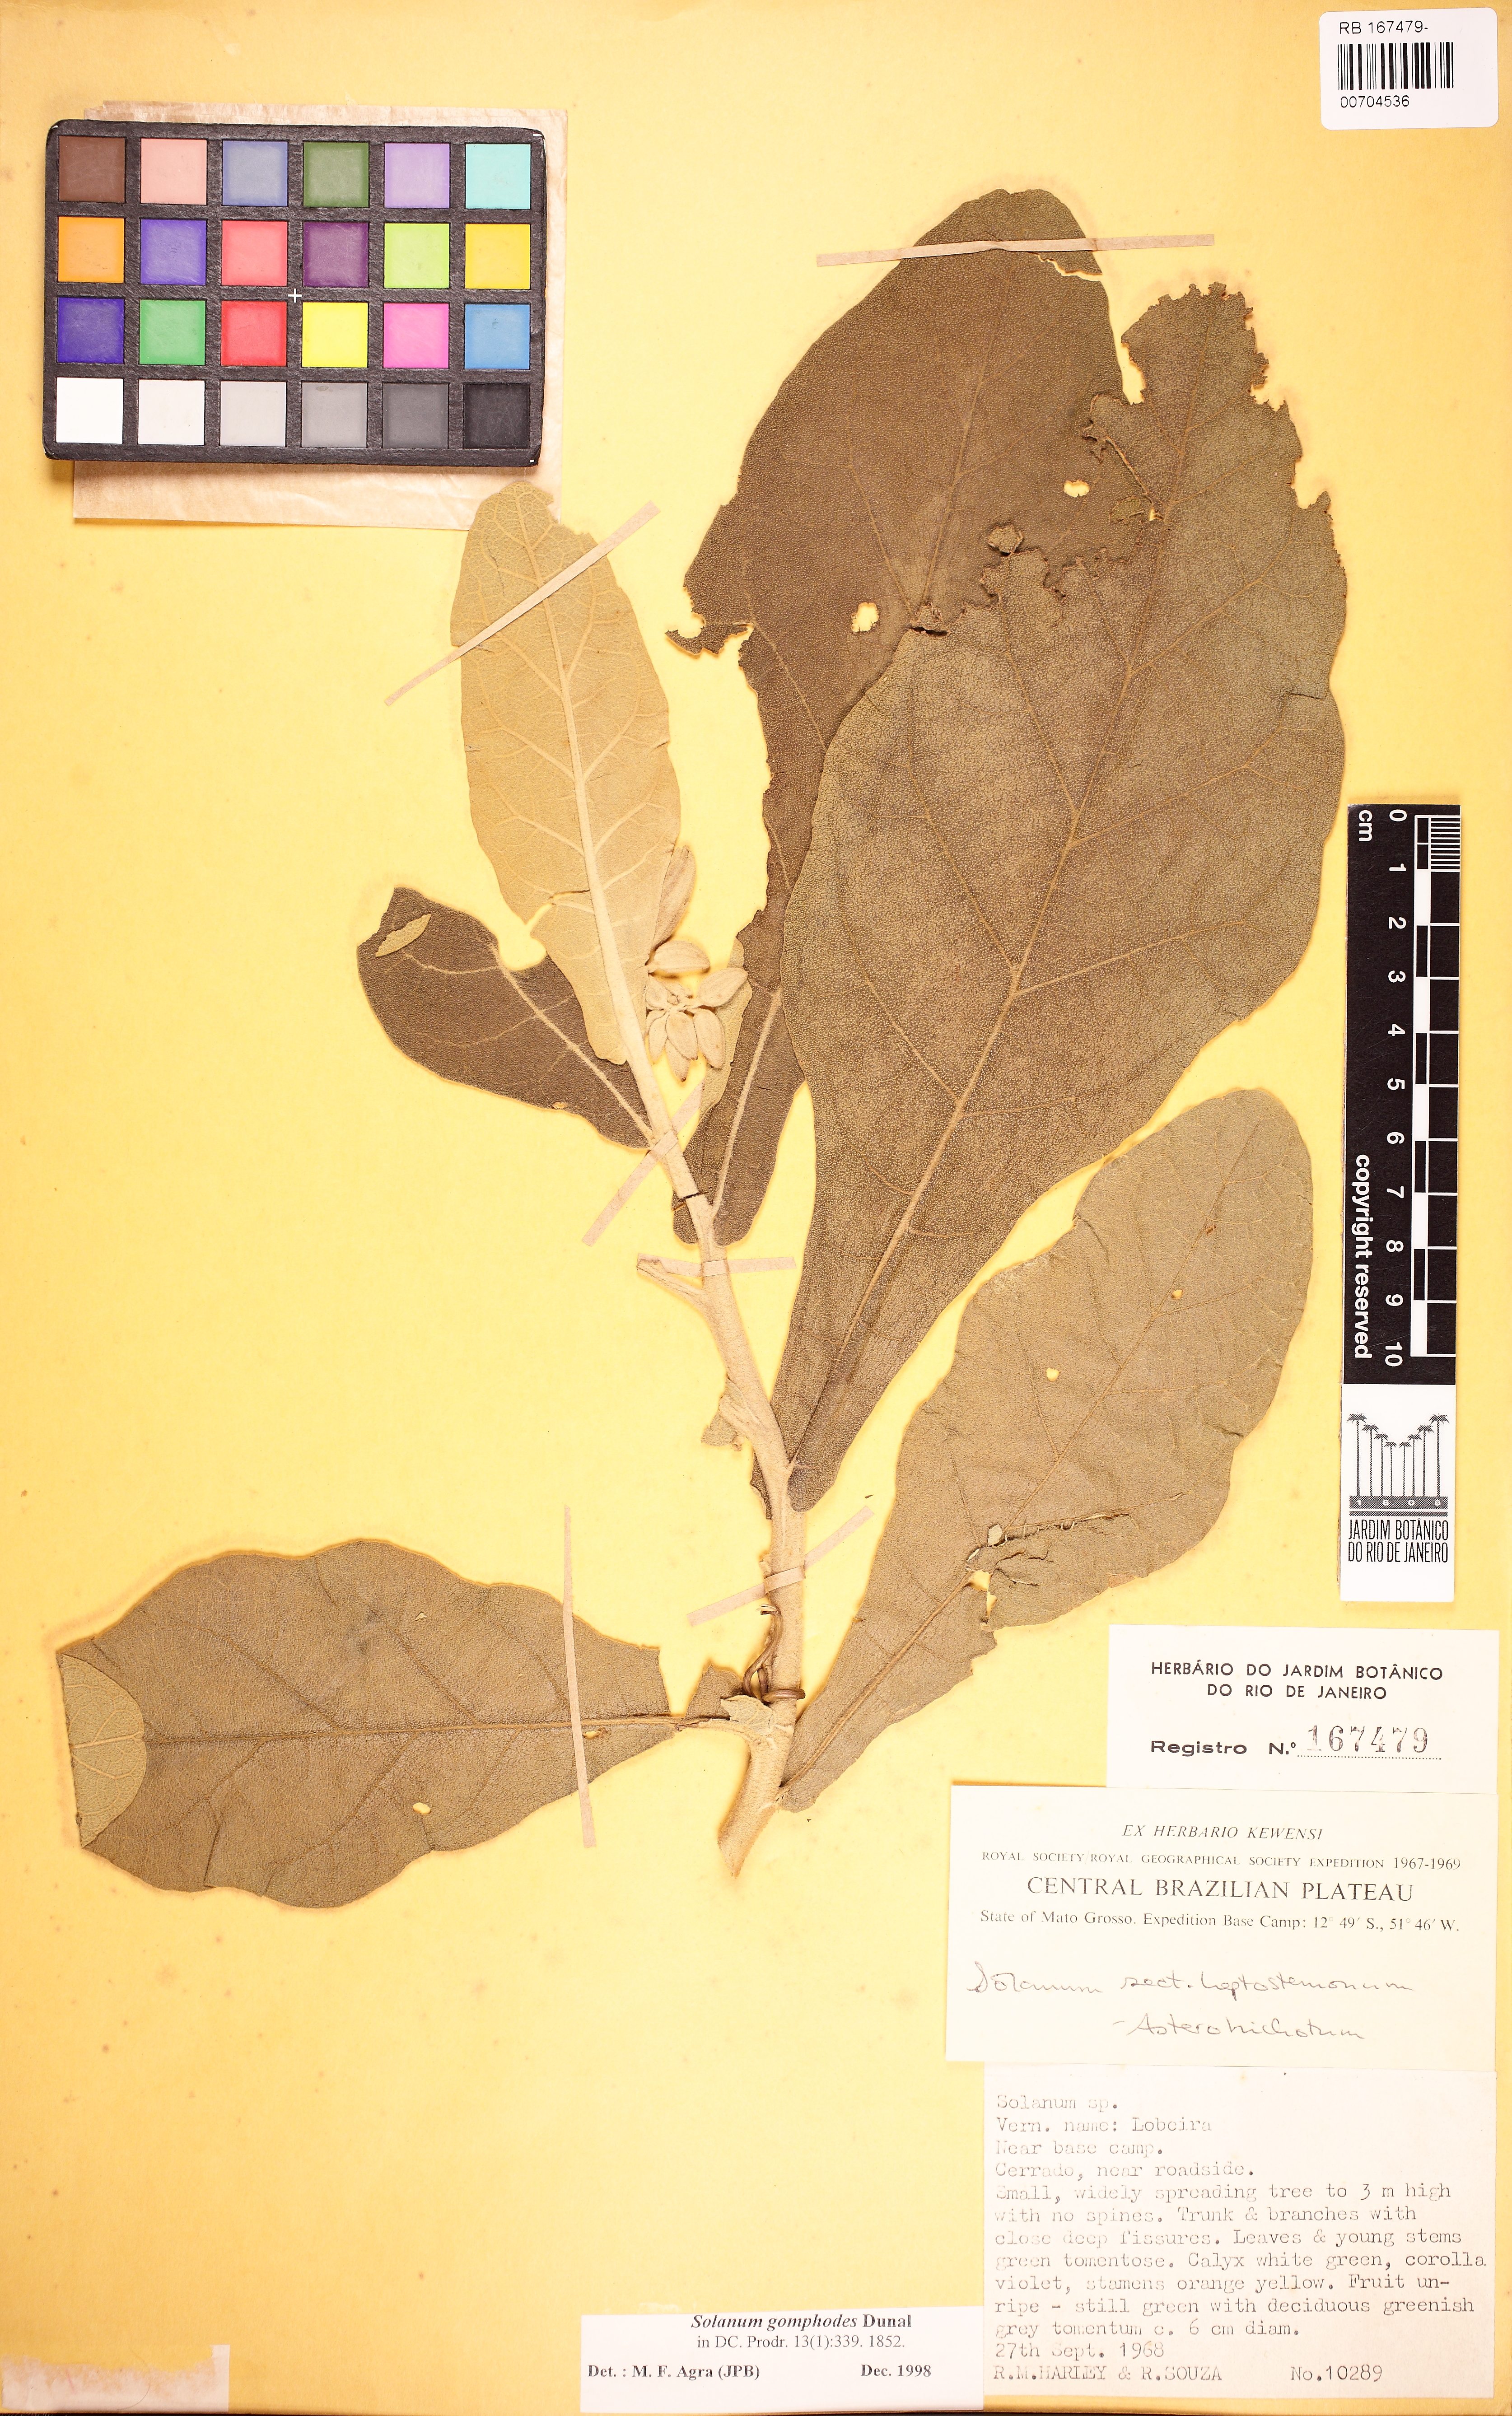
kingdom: Plantae
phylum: Tracheophyta
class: Magnoliopsida
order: Solanales
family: Solanaceae
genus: Solanum
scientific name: Solanum gomphodes
